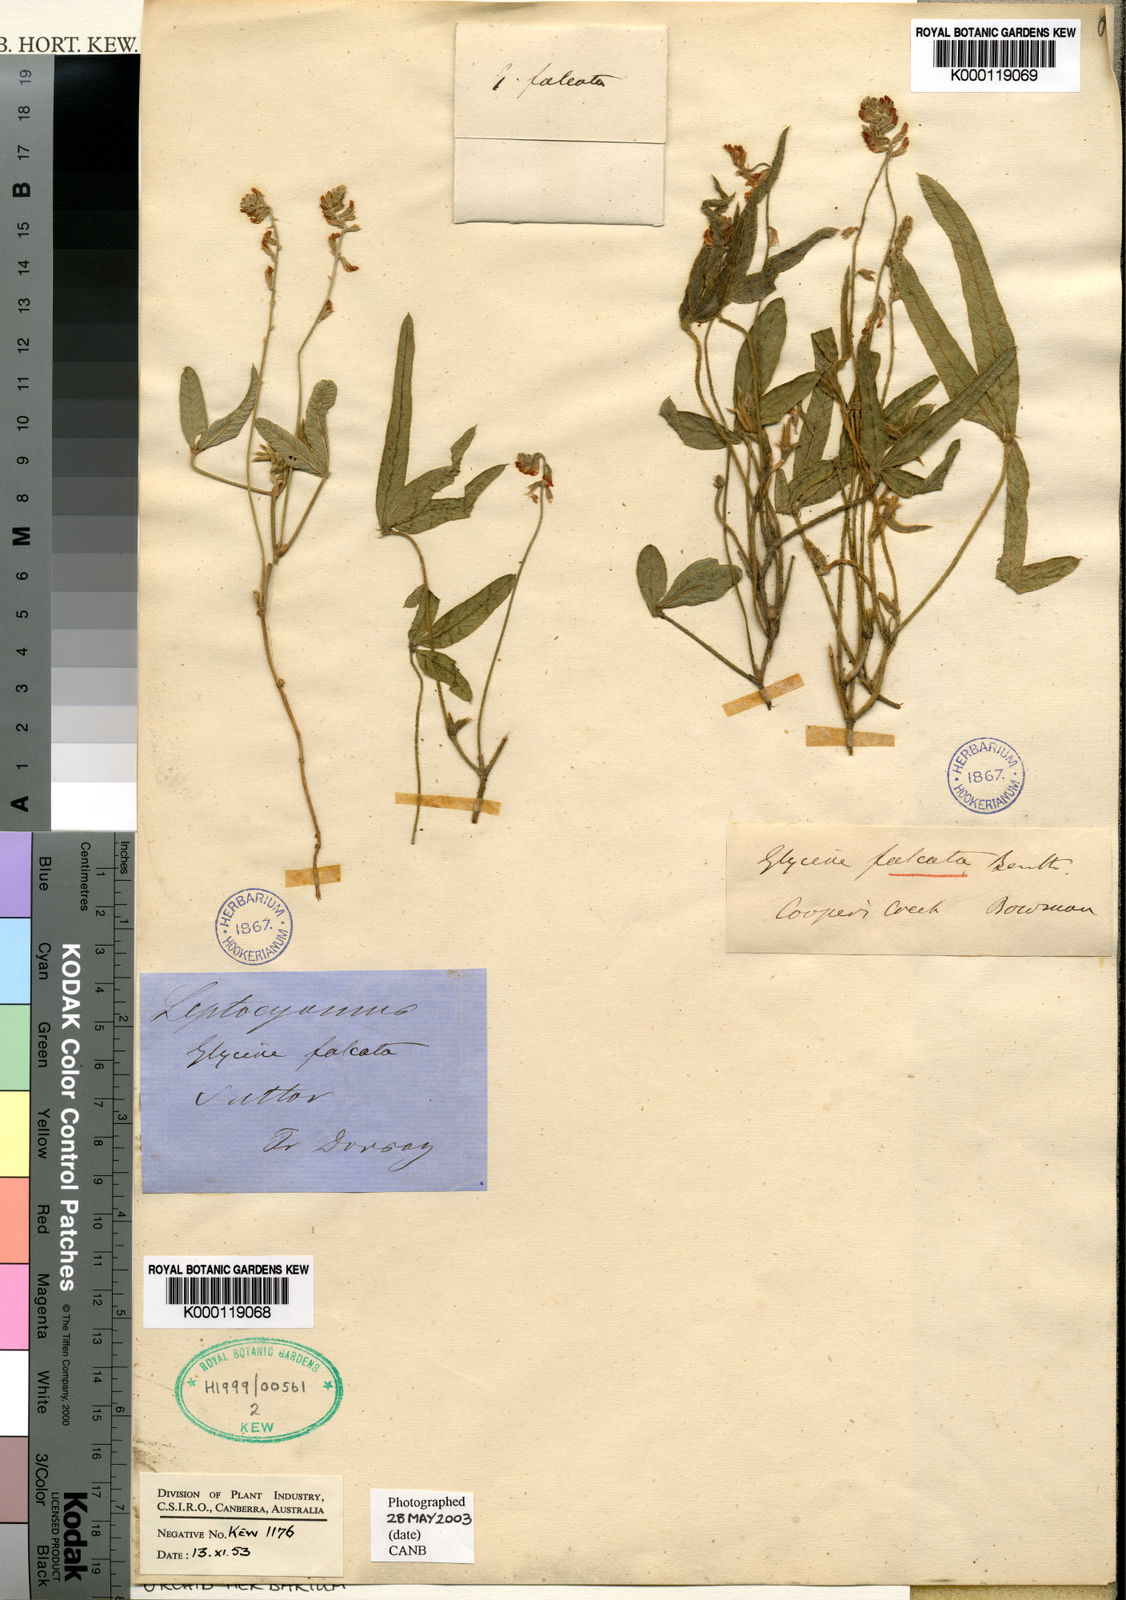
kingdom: Plantae
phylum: Tracheophyta
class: Magnoliopsida
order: Fabales
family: Fabaceae
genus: Glycine
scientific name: Glycine falcata
